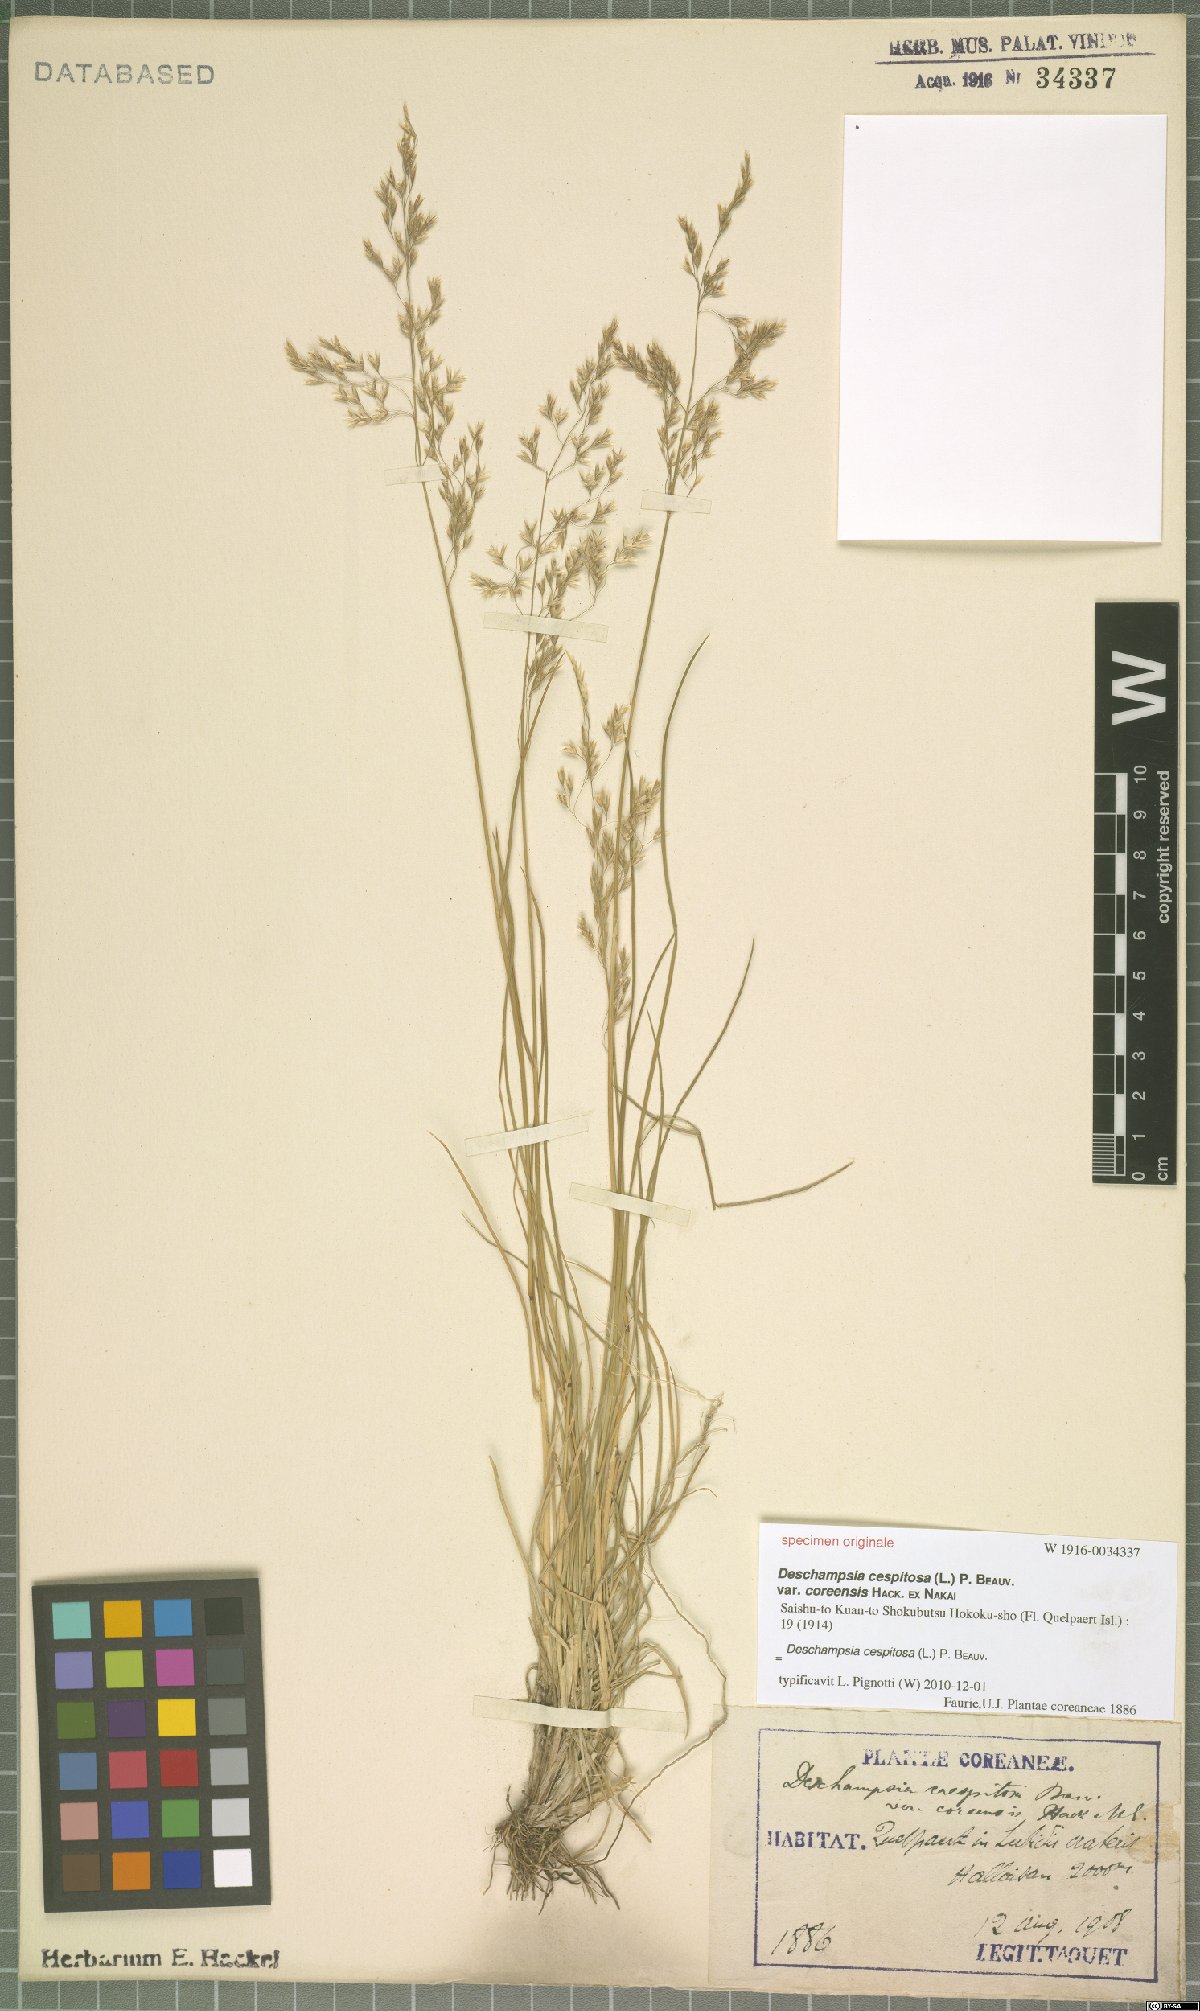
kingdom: Plantae
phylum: Tracheophyta
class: Liliopsida
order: Poales
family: Poaceae
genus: Deschampsia
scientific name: Deschampsia cespitosa
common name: Tufted hair-grass
